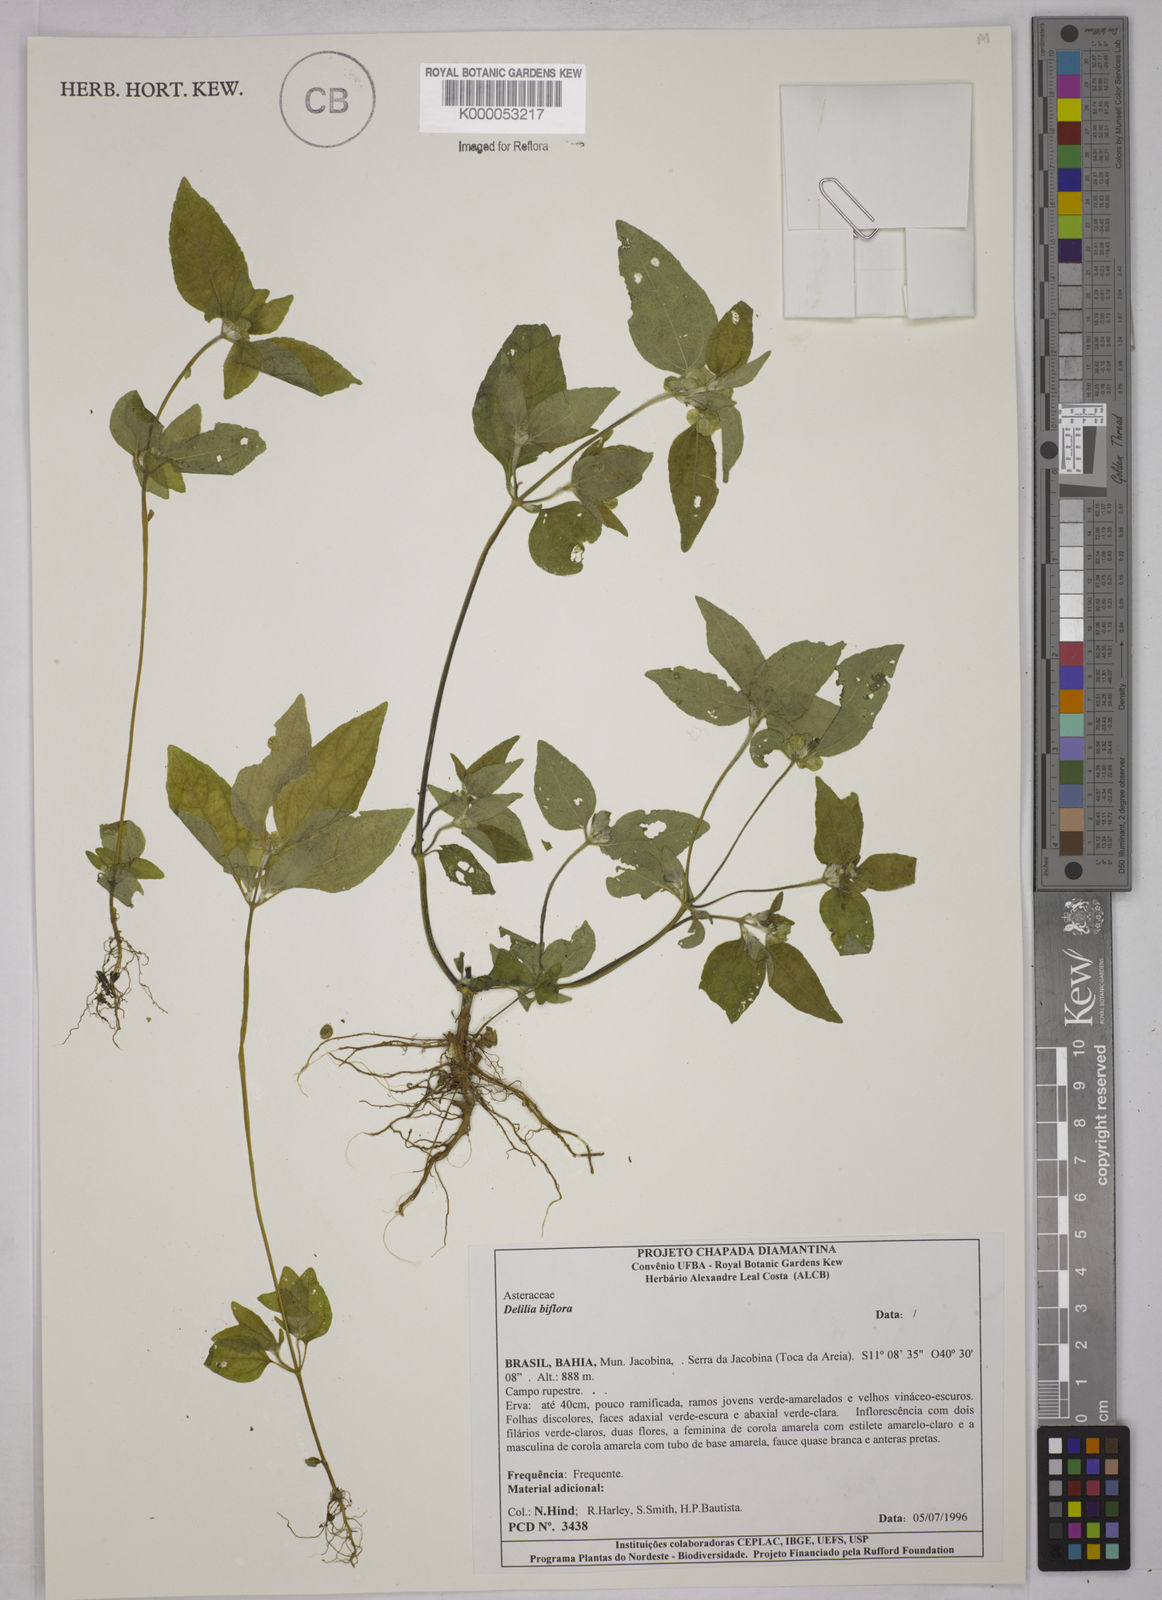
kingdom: Plantae
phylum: Tracheophyta
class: Magnoliopsida
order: Asterales
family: Asteraceae
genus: Delilia
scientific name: Delilia biflora
